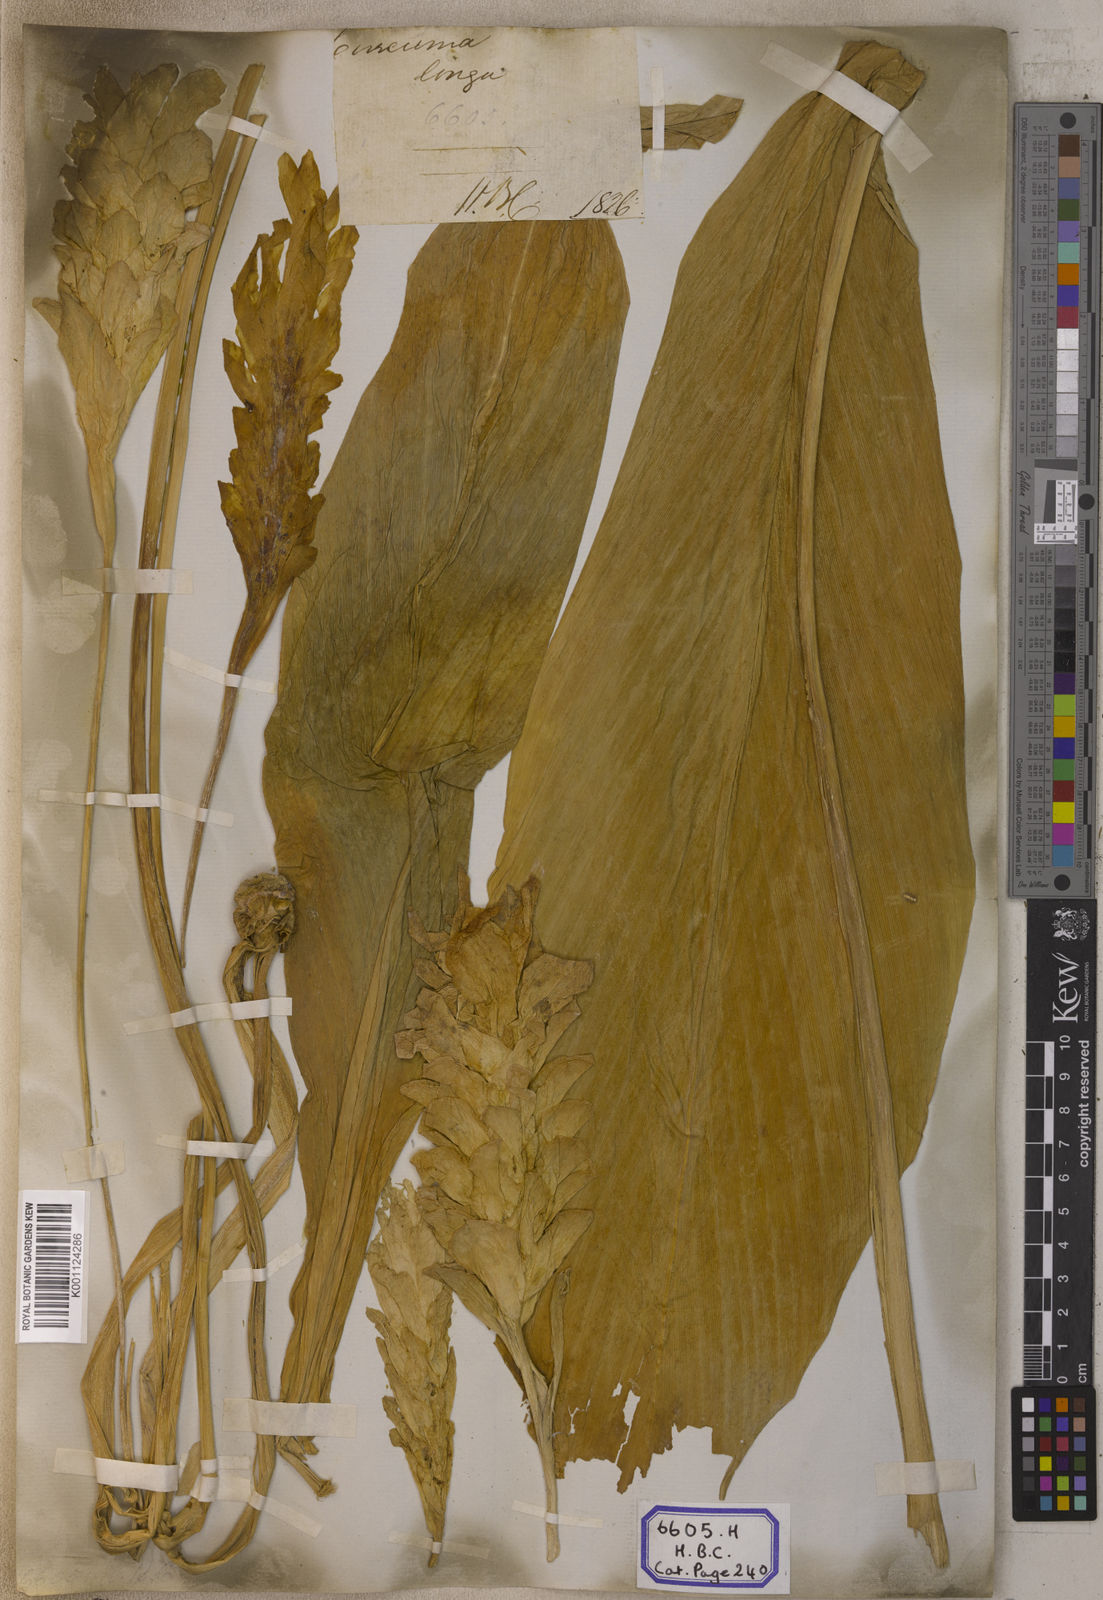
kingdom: Plantae
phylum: Tracheophyta
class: Liliopsida
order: Zingiberales
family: Zingiberaceae
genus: Curcuma
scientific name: Curcuma longa
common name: Turmeric
